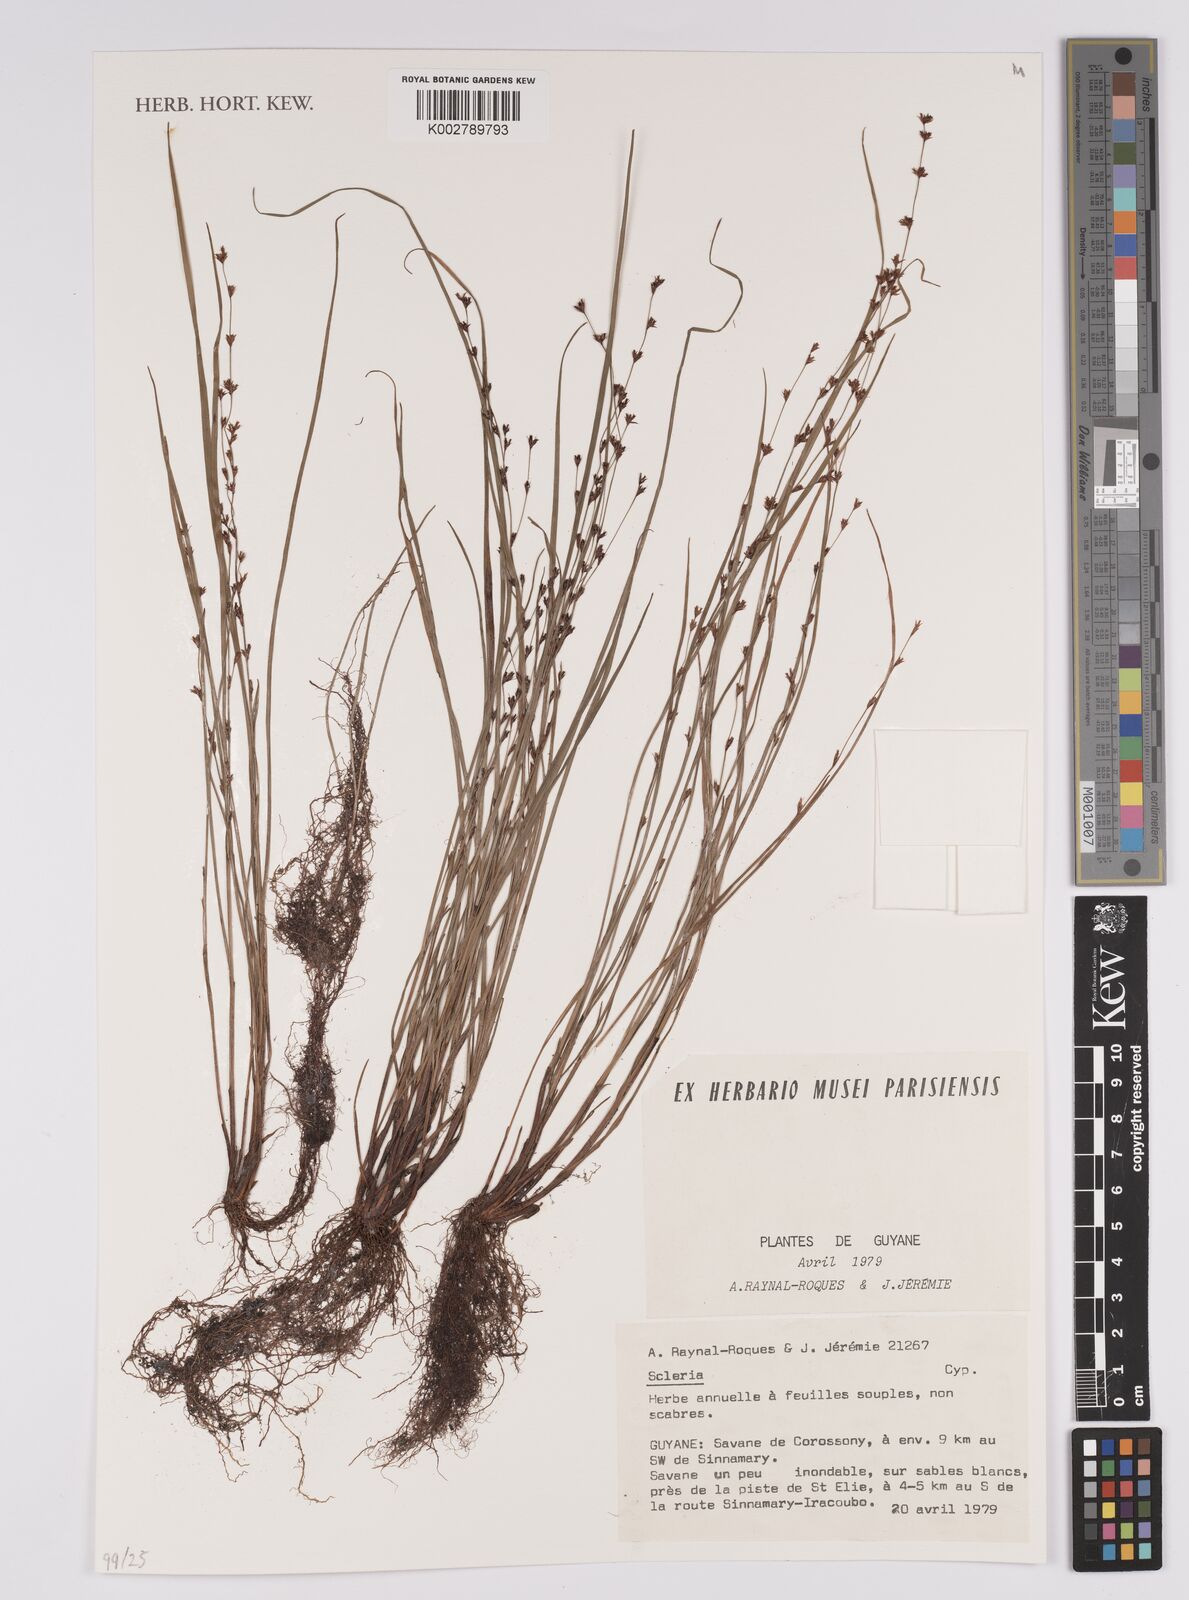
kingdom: Plantae
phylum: Tracheophyta
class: Liliopsida
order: Poales
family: Cyperaceae
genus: Scleria
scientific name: Scleria
